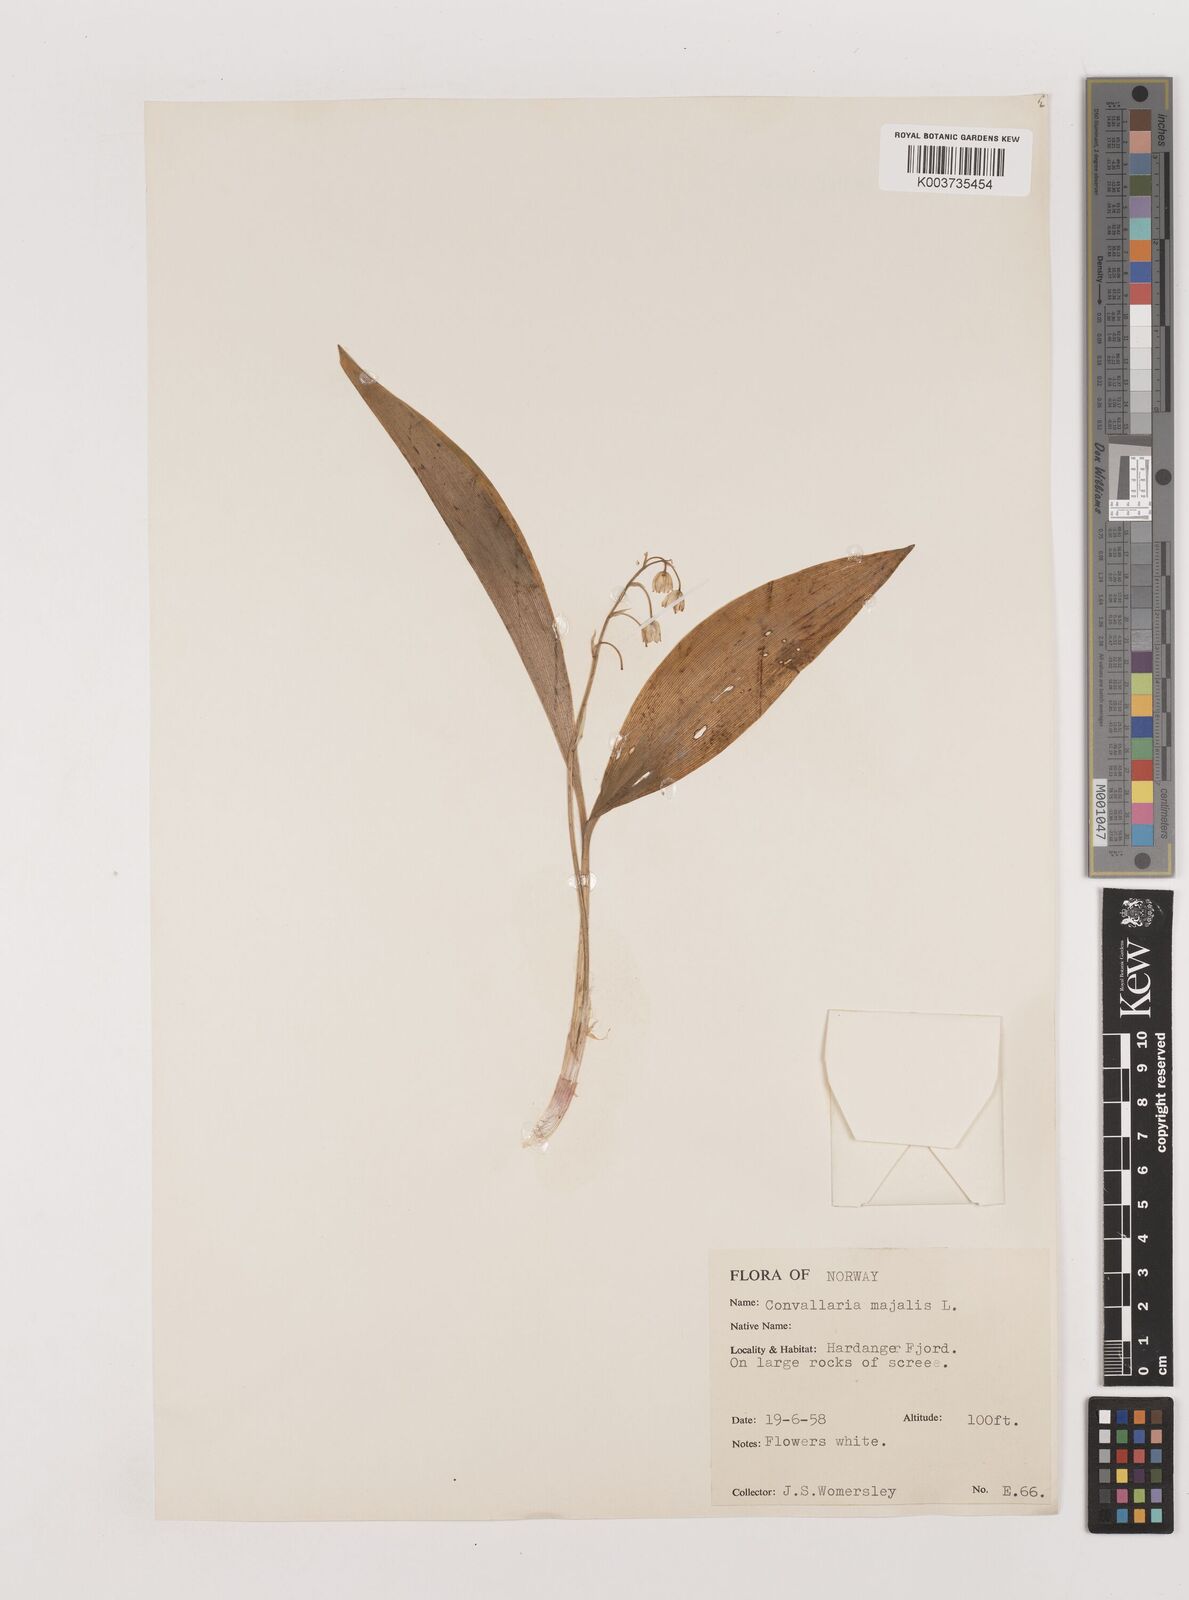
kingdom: Plantae
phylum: Tracheophyta
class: Liliopsida
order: Asparagales
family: Asparagaceae
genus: Convallaria
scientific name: Convallaria majalis
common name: Lily-of-the-valley
